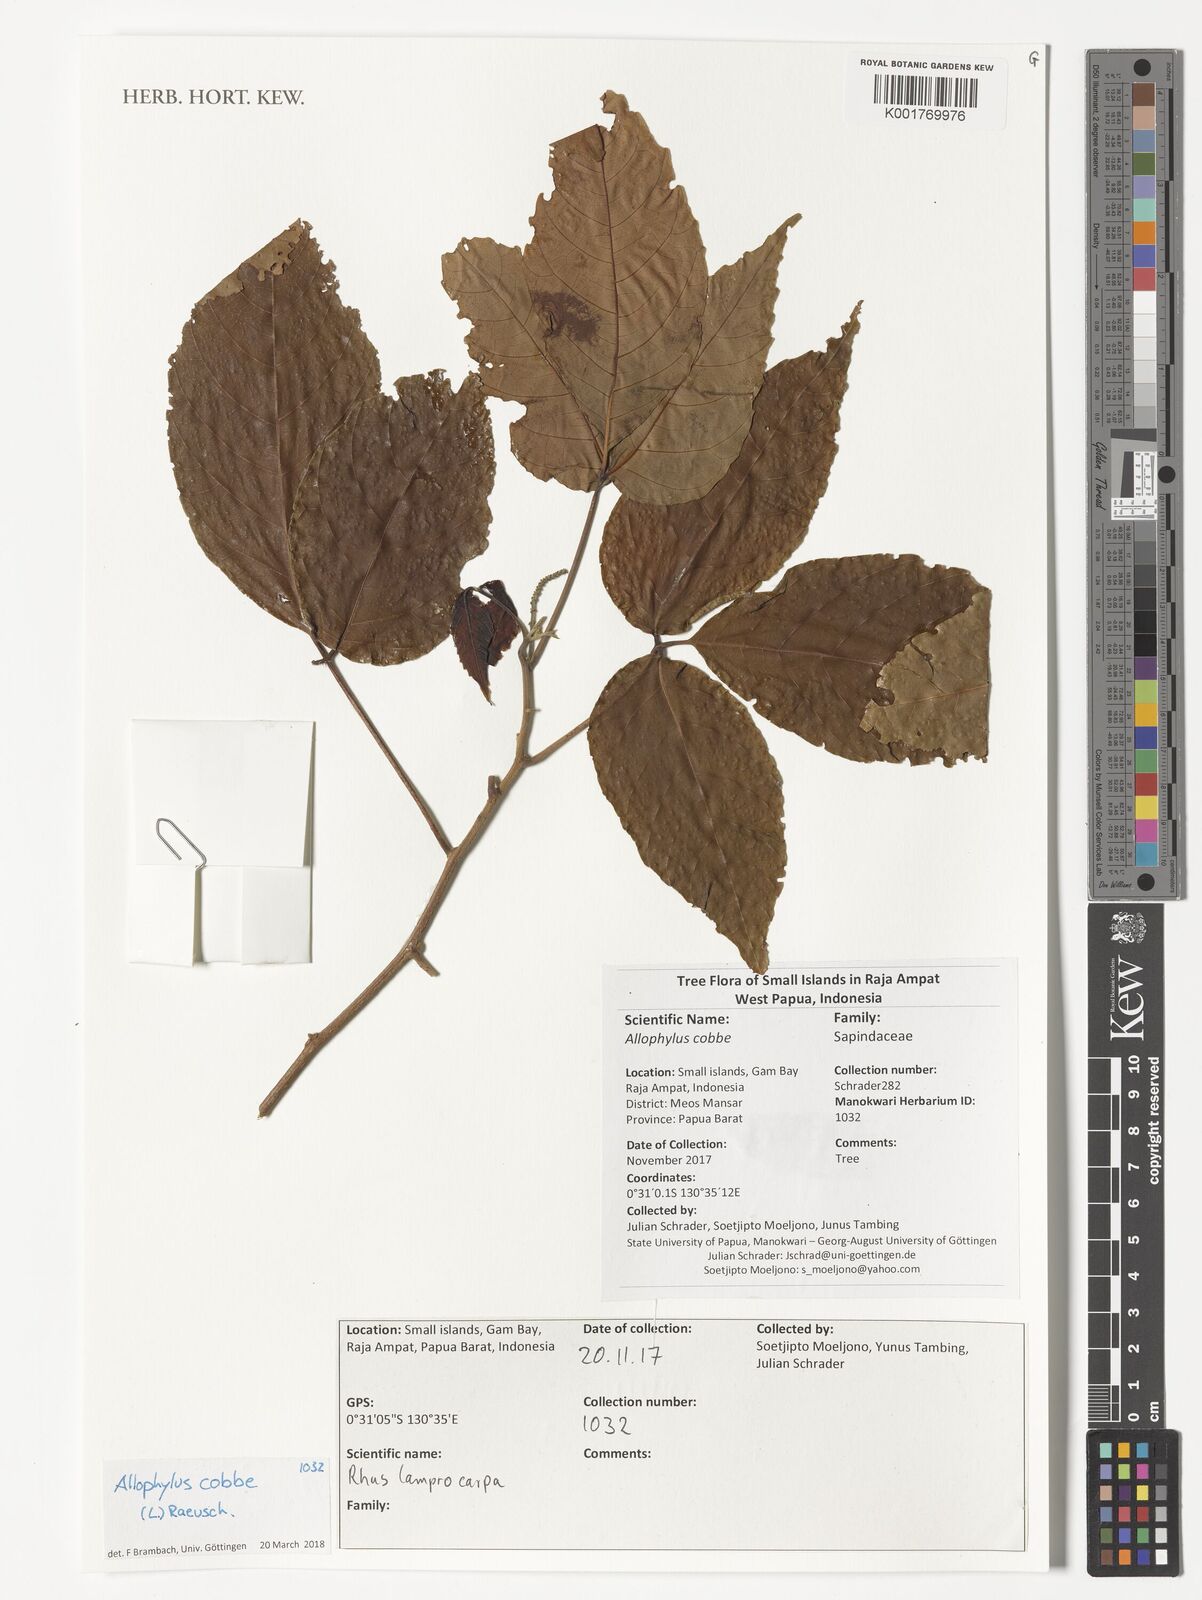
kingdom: Plantae
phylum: Tracheophyta
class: Magnoliopsida
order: Sapindales
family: Sapindaceae
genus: Allophylus
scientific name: Allophylus cobbe
